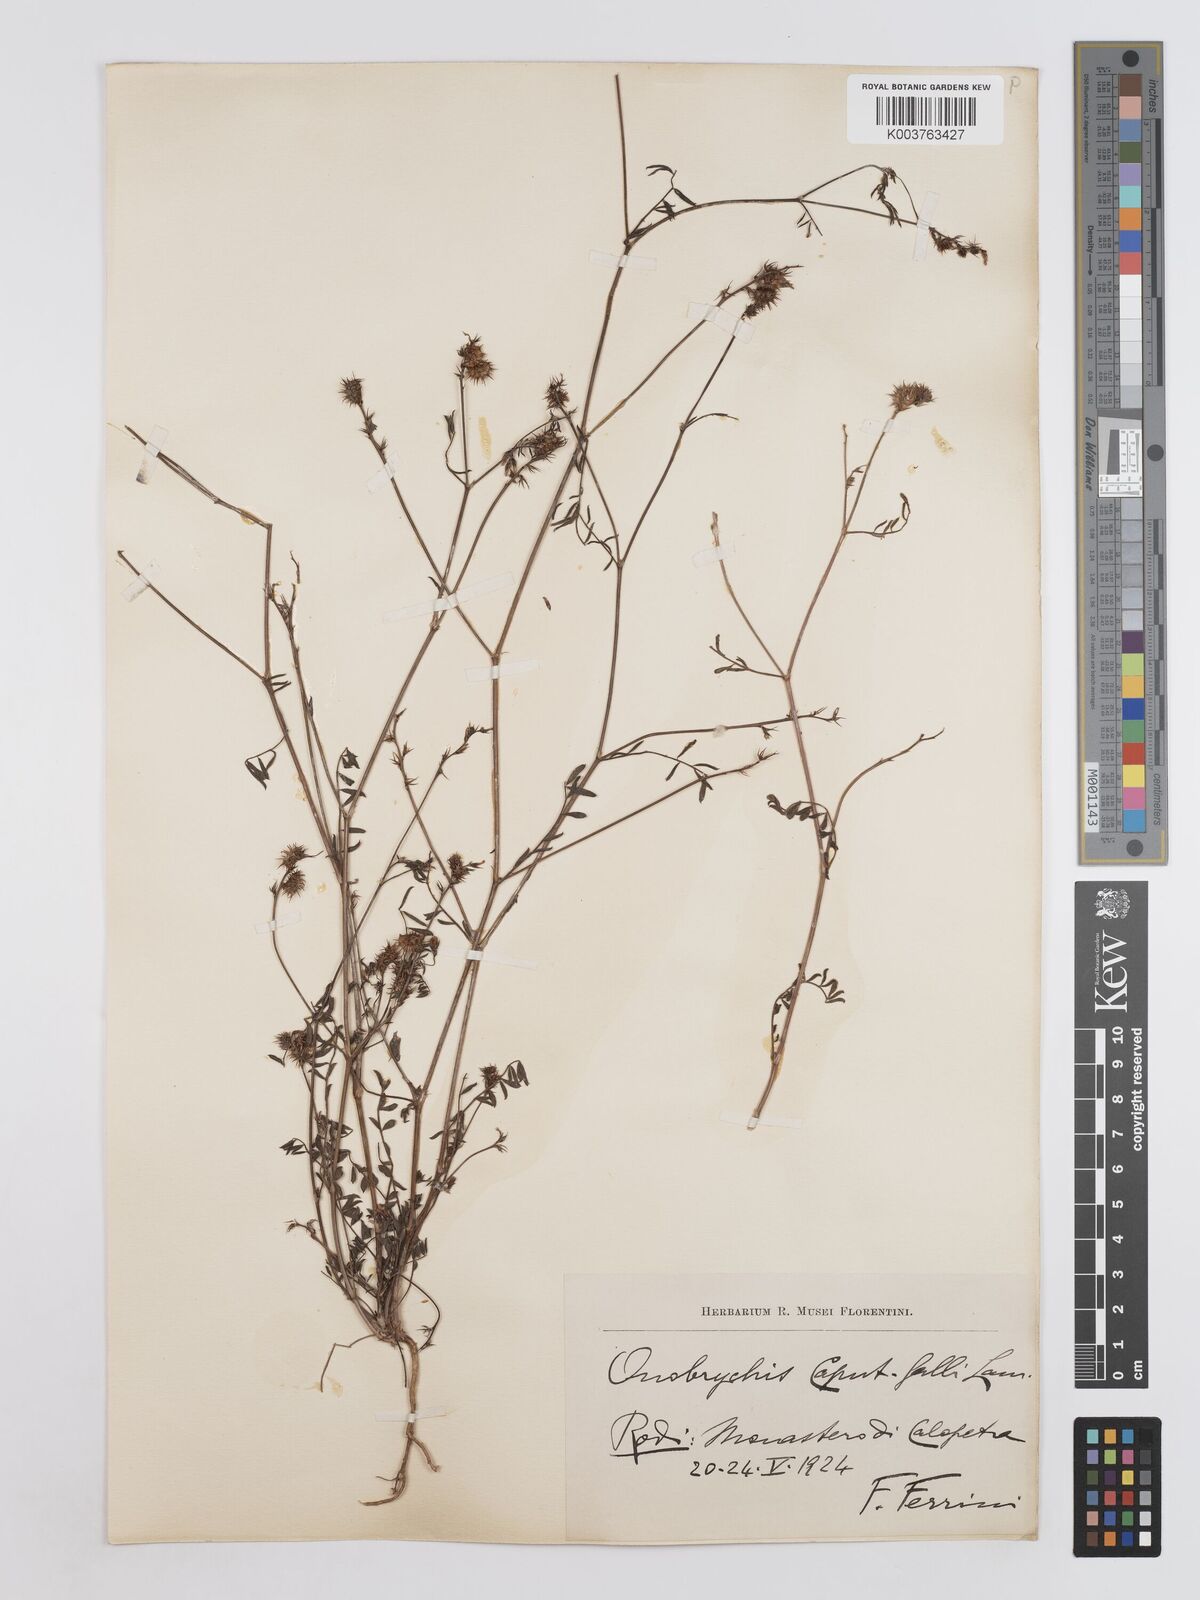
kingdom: Plantae
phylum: Tracheophyta
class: Magnoliopsida
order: Fabales
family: Fabaceae
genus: Onobrychis
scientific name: Onobrychis caput-galli
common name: Cockscomb sainfoin
